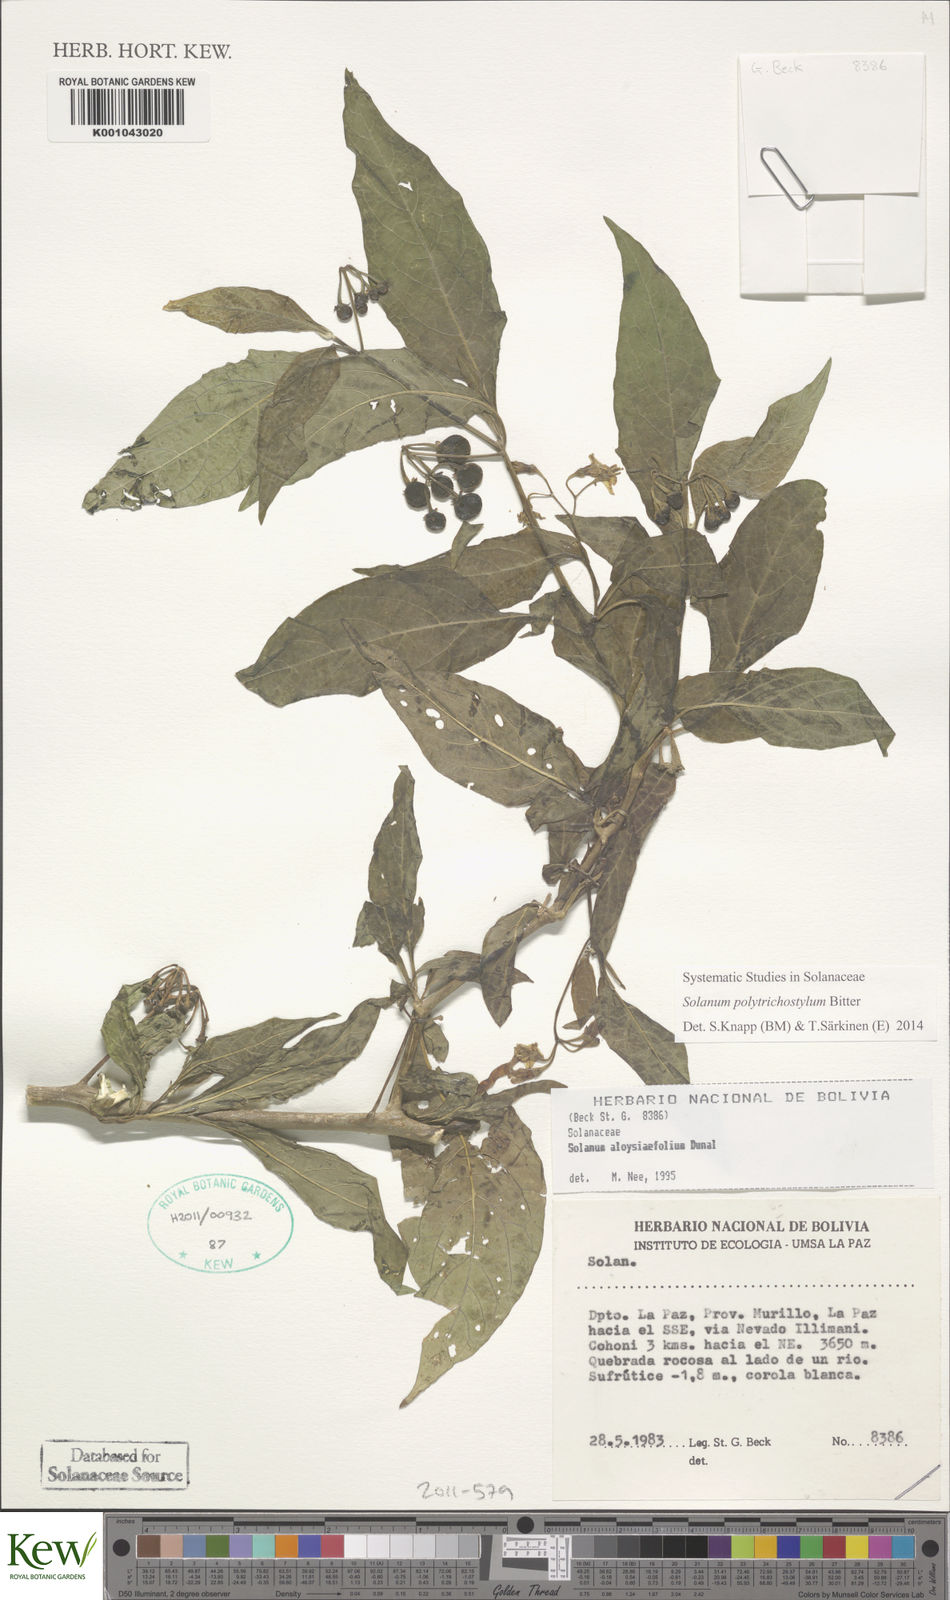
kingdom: Plantae
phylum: Tracheophyta
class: Magnoliopsida
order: Solanales
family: Solanaceae
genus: Solanum
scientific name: Solanum polytrichostylum
